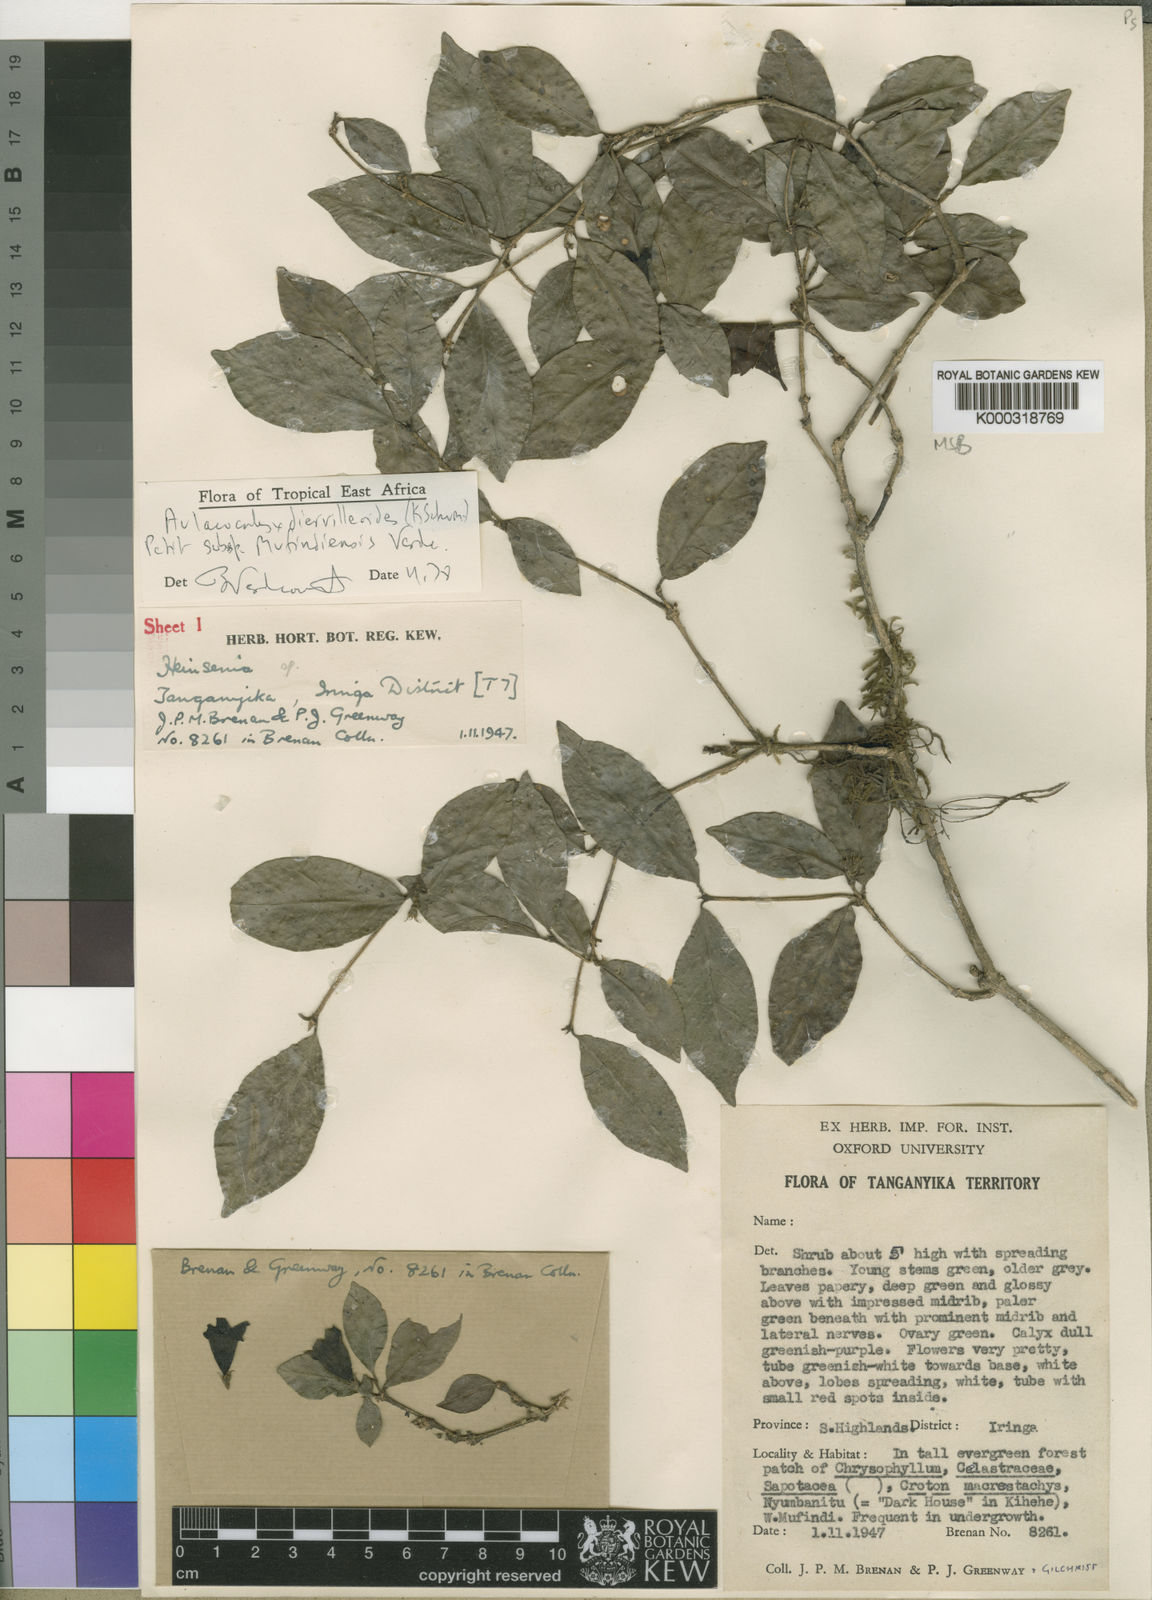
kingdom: Plantae
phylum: Tracheophyta
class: Magnoliopsida
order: Gentianales
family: Rubiaceae
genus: Heinsenia
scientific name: Heinsenia diervilleoides
